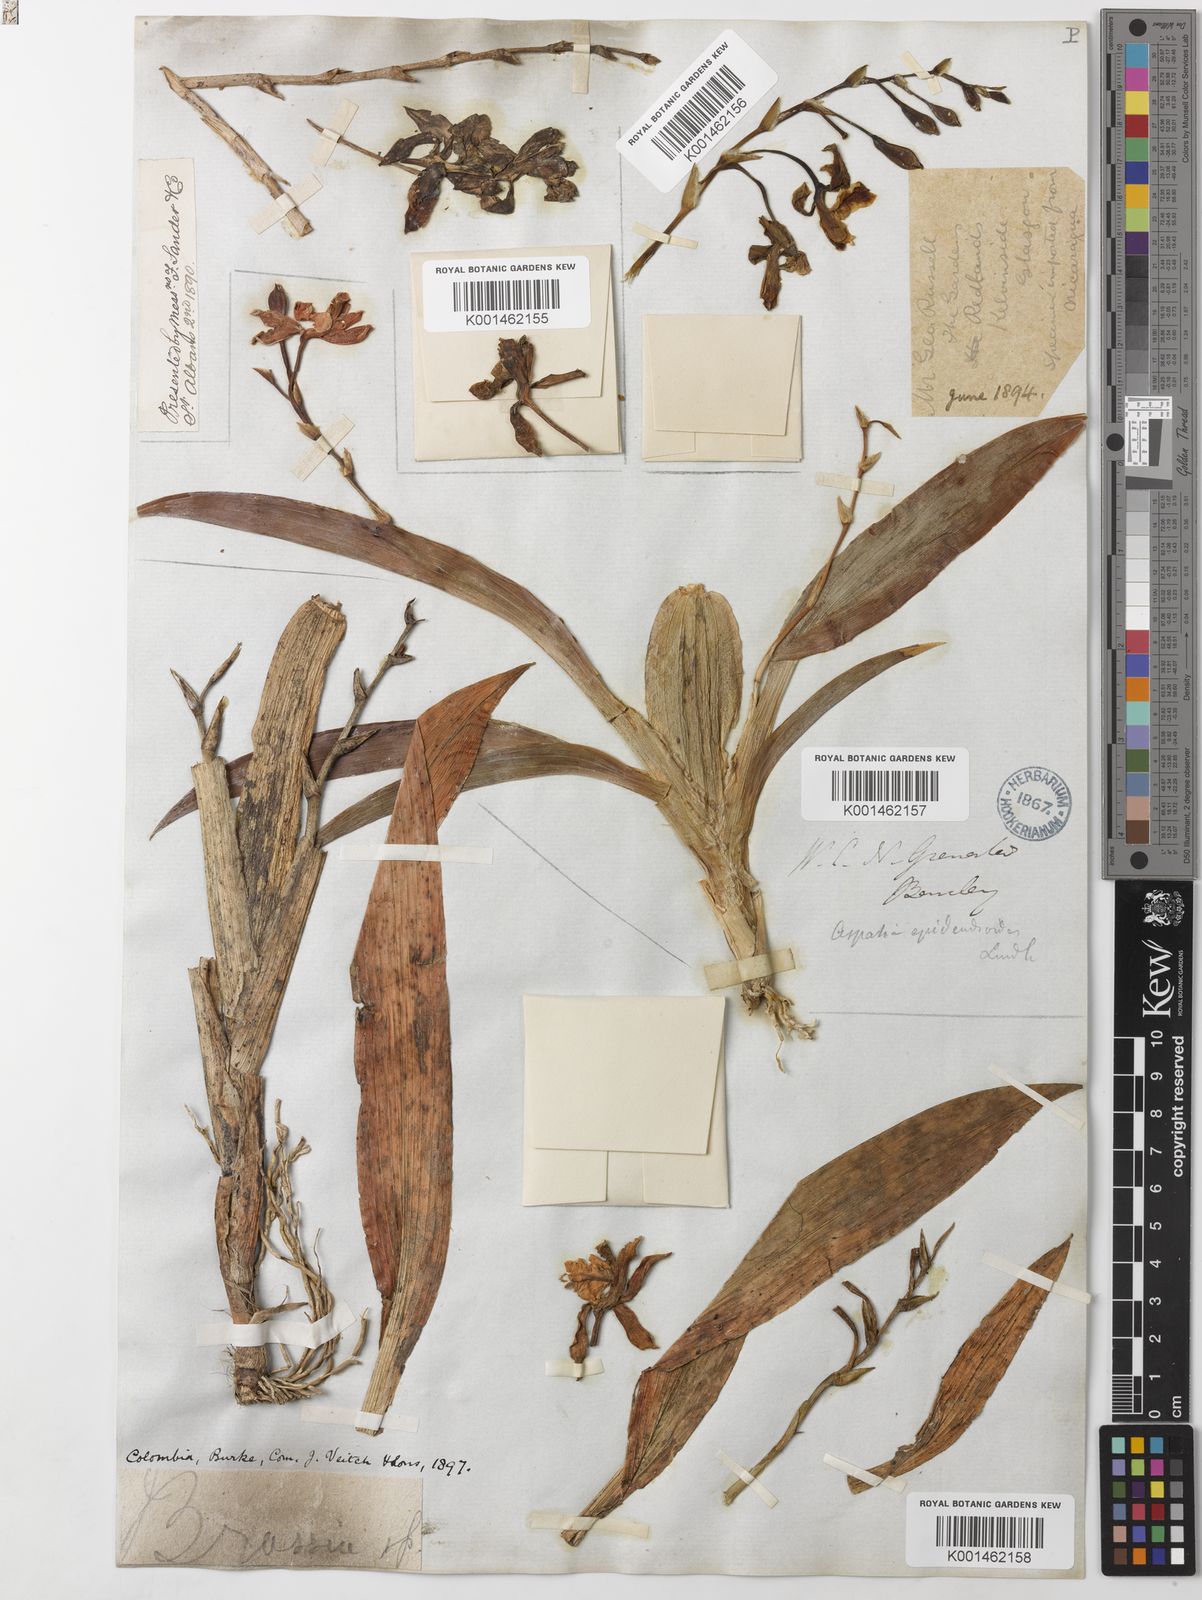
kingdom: Plantae
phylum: Tracheophyta
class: Liliopsida
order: Asparagales
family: Orchidaceae
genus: Aspasia
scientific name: Aspasia epidendroides
